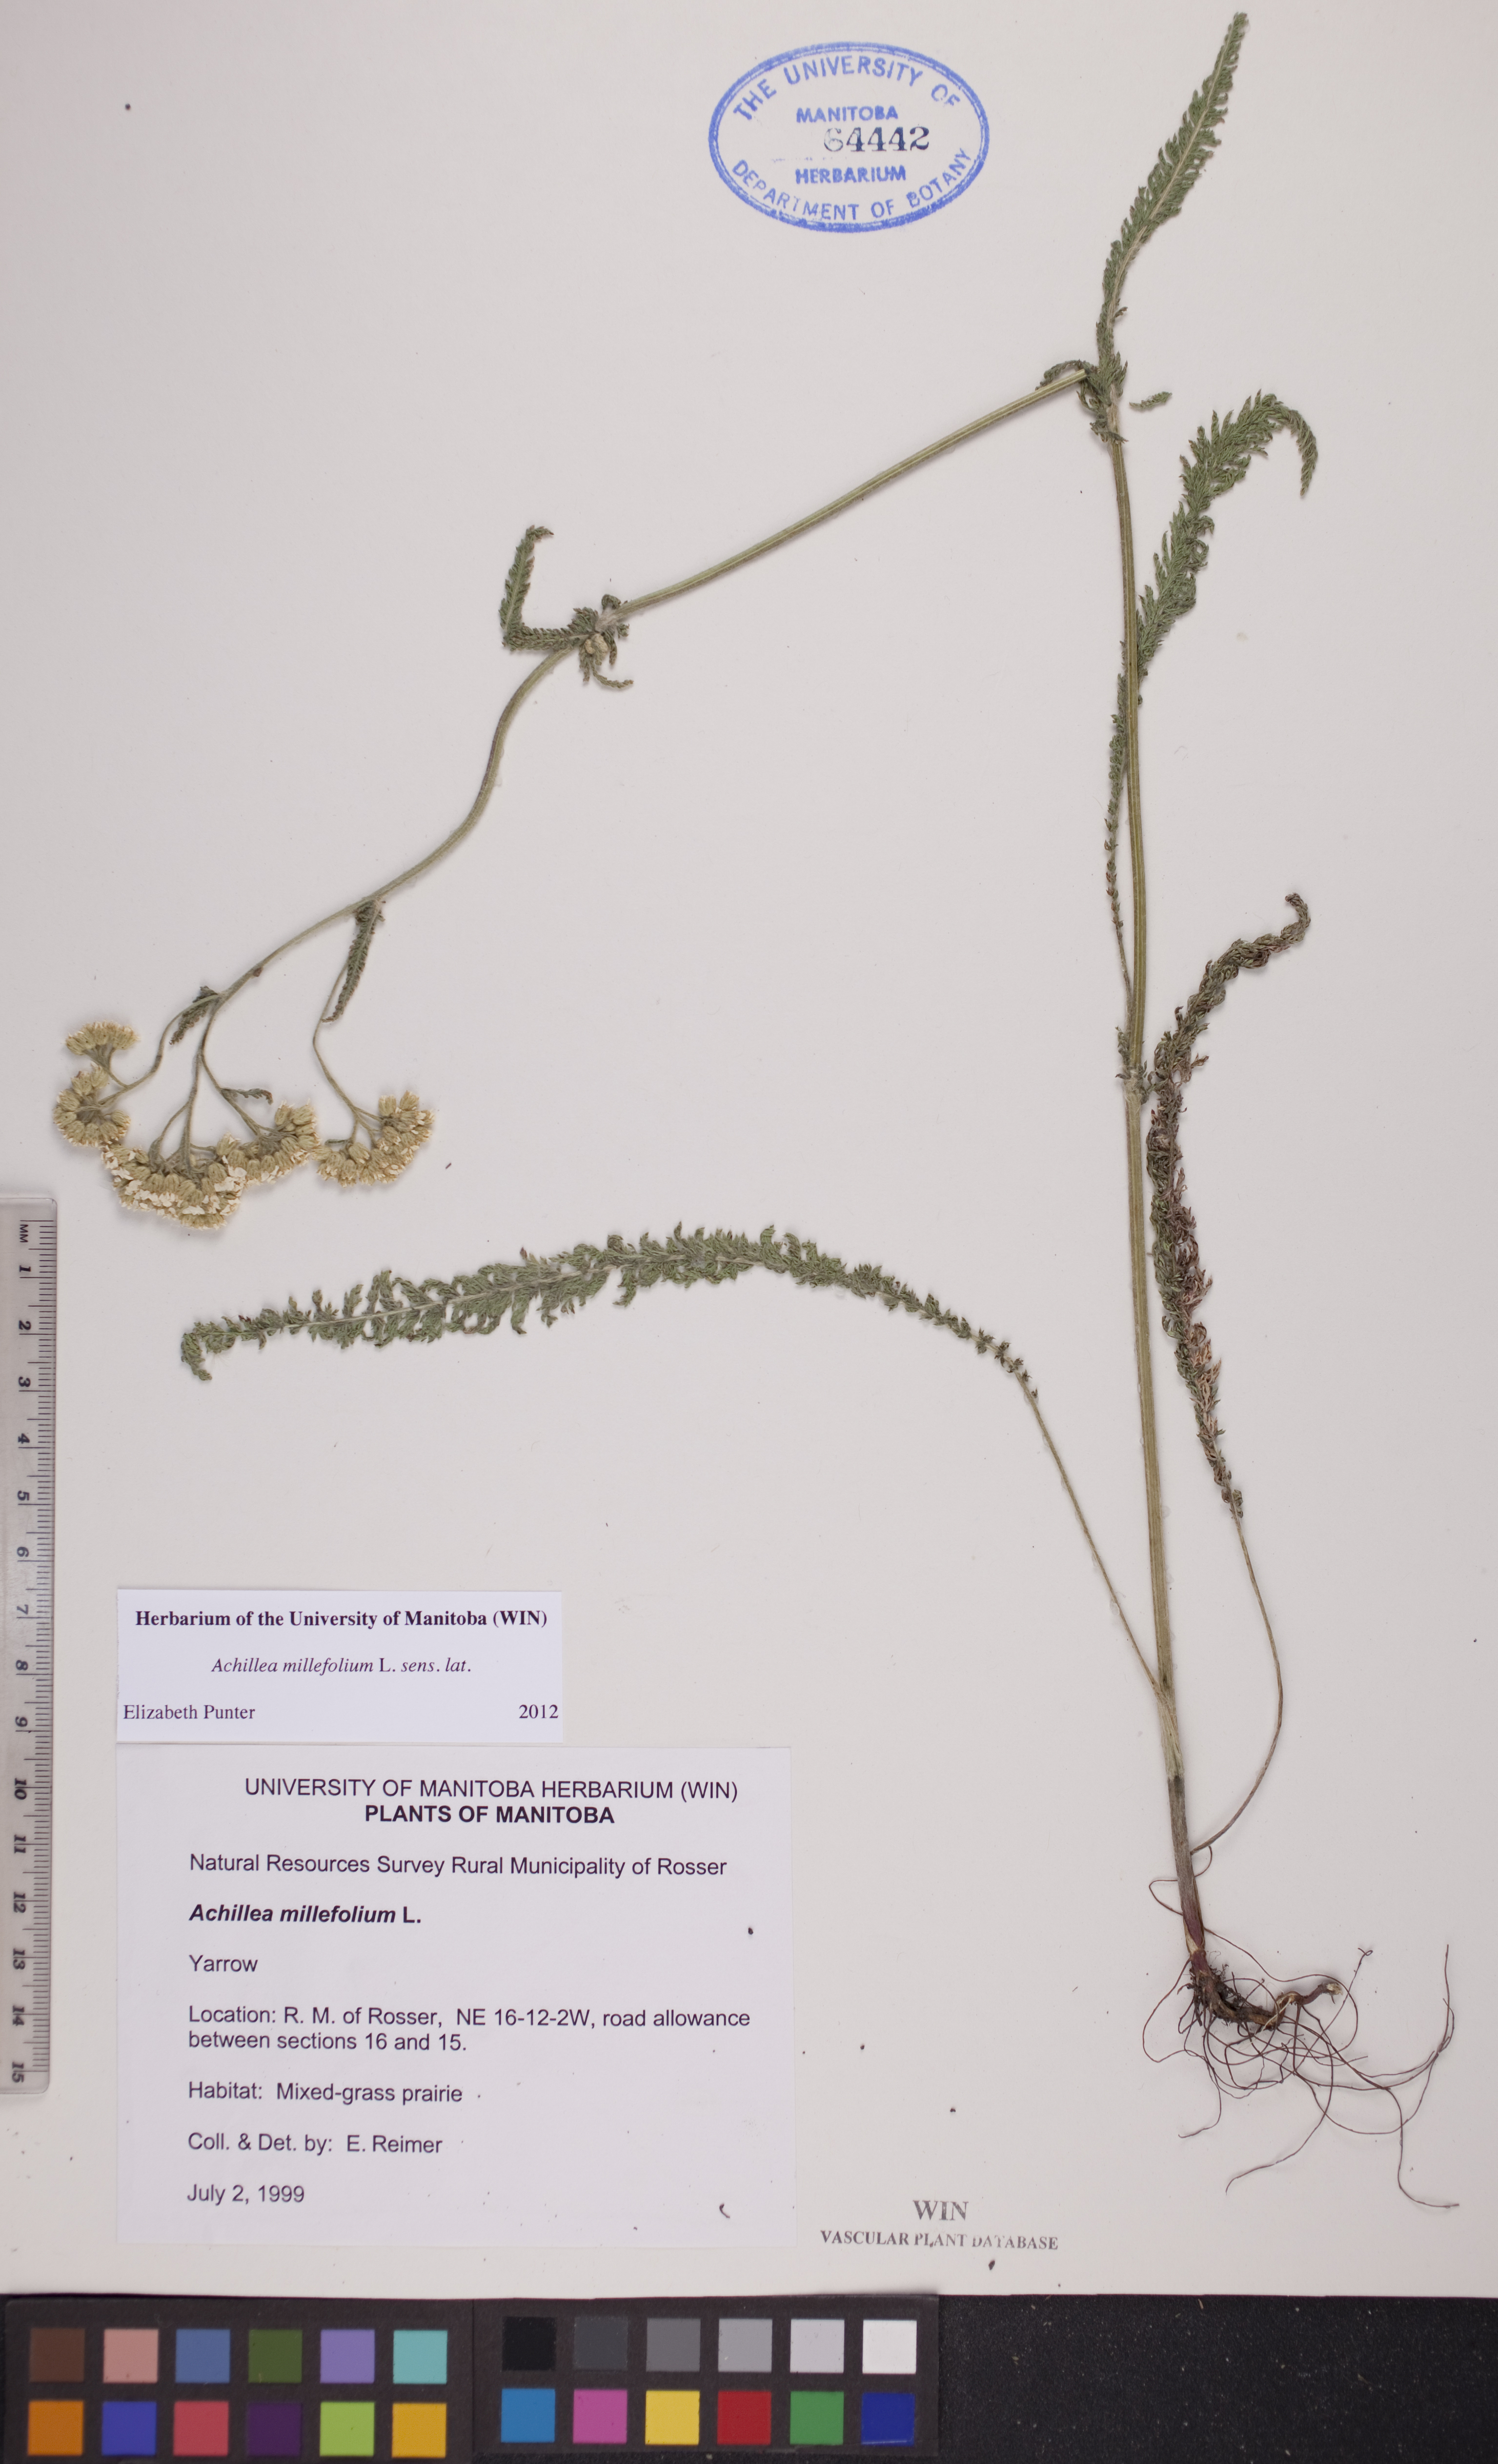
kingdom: Plantae
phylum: Tracheophyta
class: Magnoliopsida
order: Asterales
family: Asteraceae
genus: Achillea
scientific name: Achillea millefolium
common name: Yarrow
